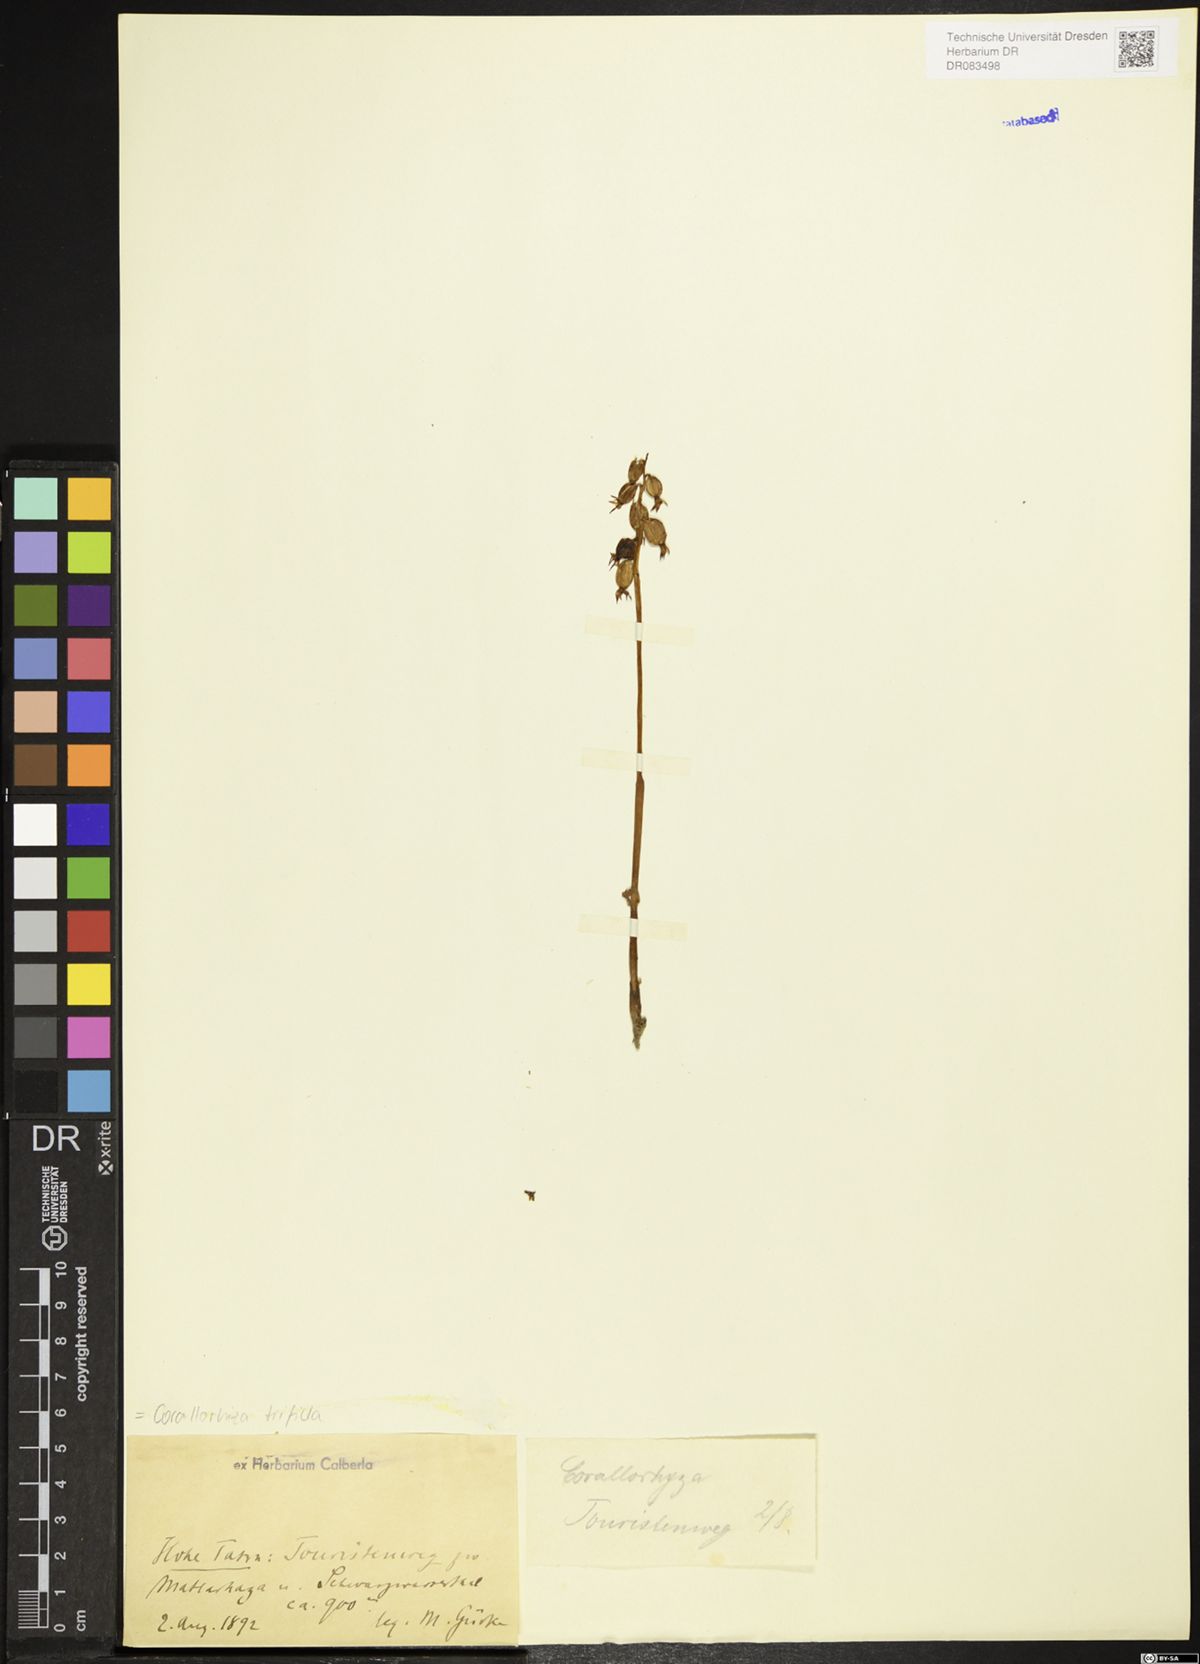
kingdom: Plantae
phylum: Tracheophyta
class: Liliopsida
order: Asparagales
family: Orchidaceae
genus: Corallorhiza
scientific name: Corallorhiza trifida
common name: Yellow coralroot
